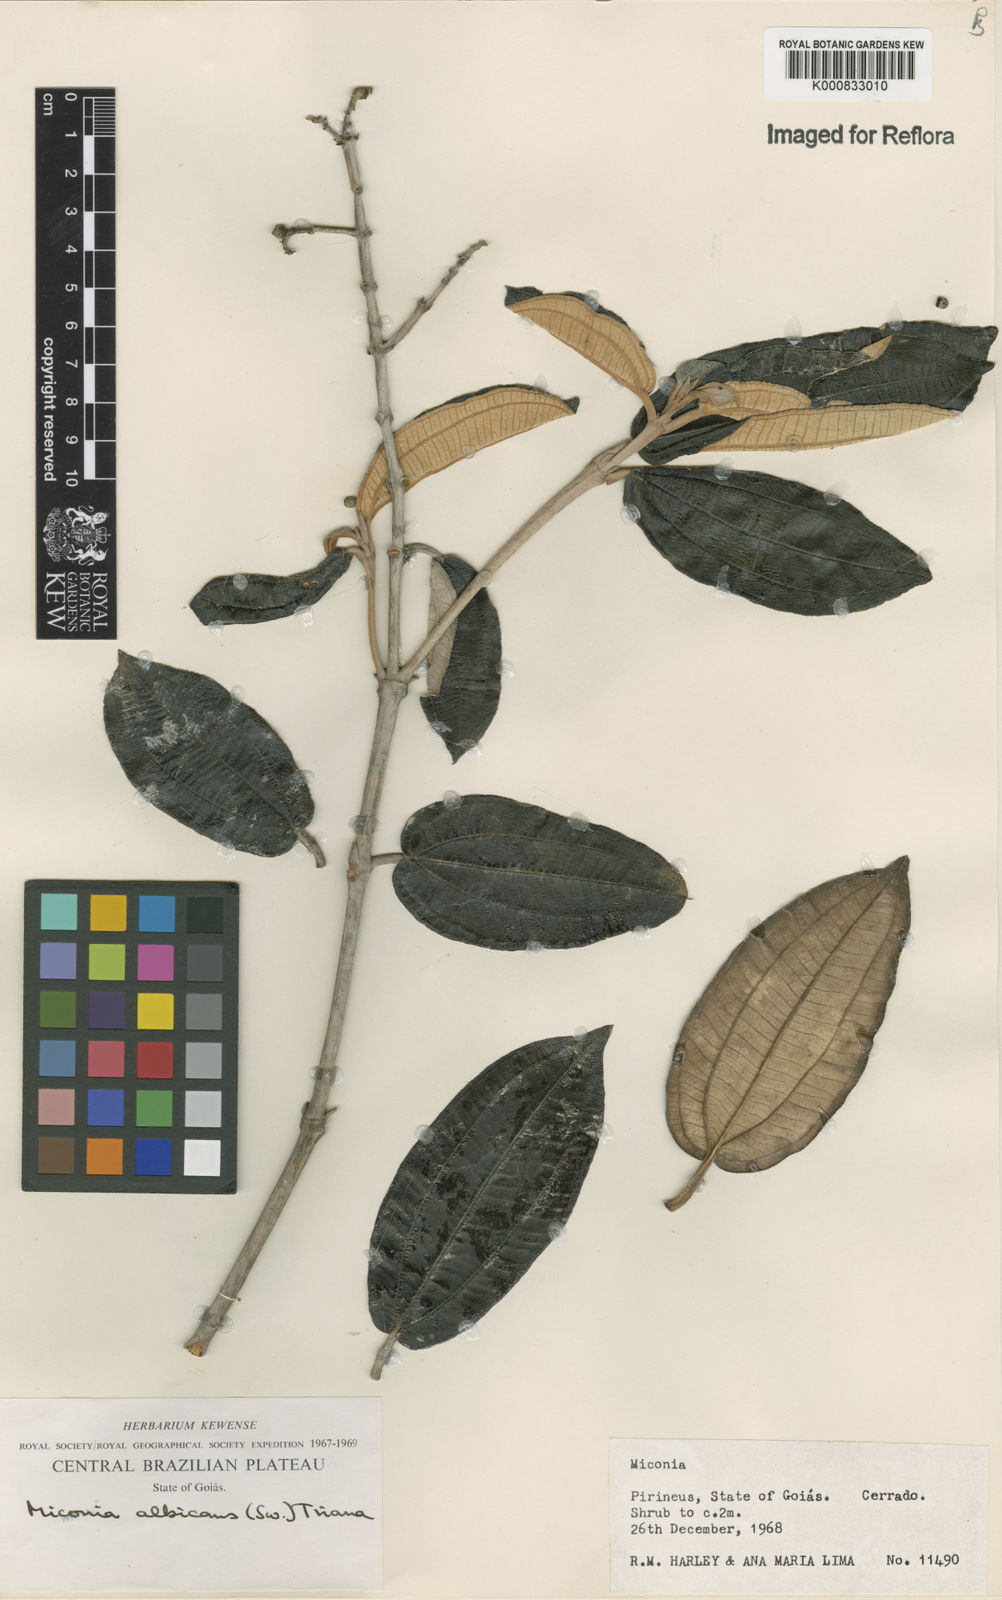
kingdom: Plantae
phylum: Tracheophyta
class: Magnoliopsida
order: Myrtales
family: Melastomataceae
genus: Miconia
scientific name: Miconia albicans
